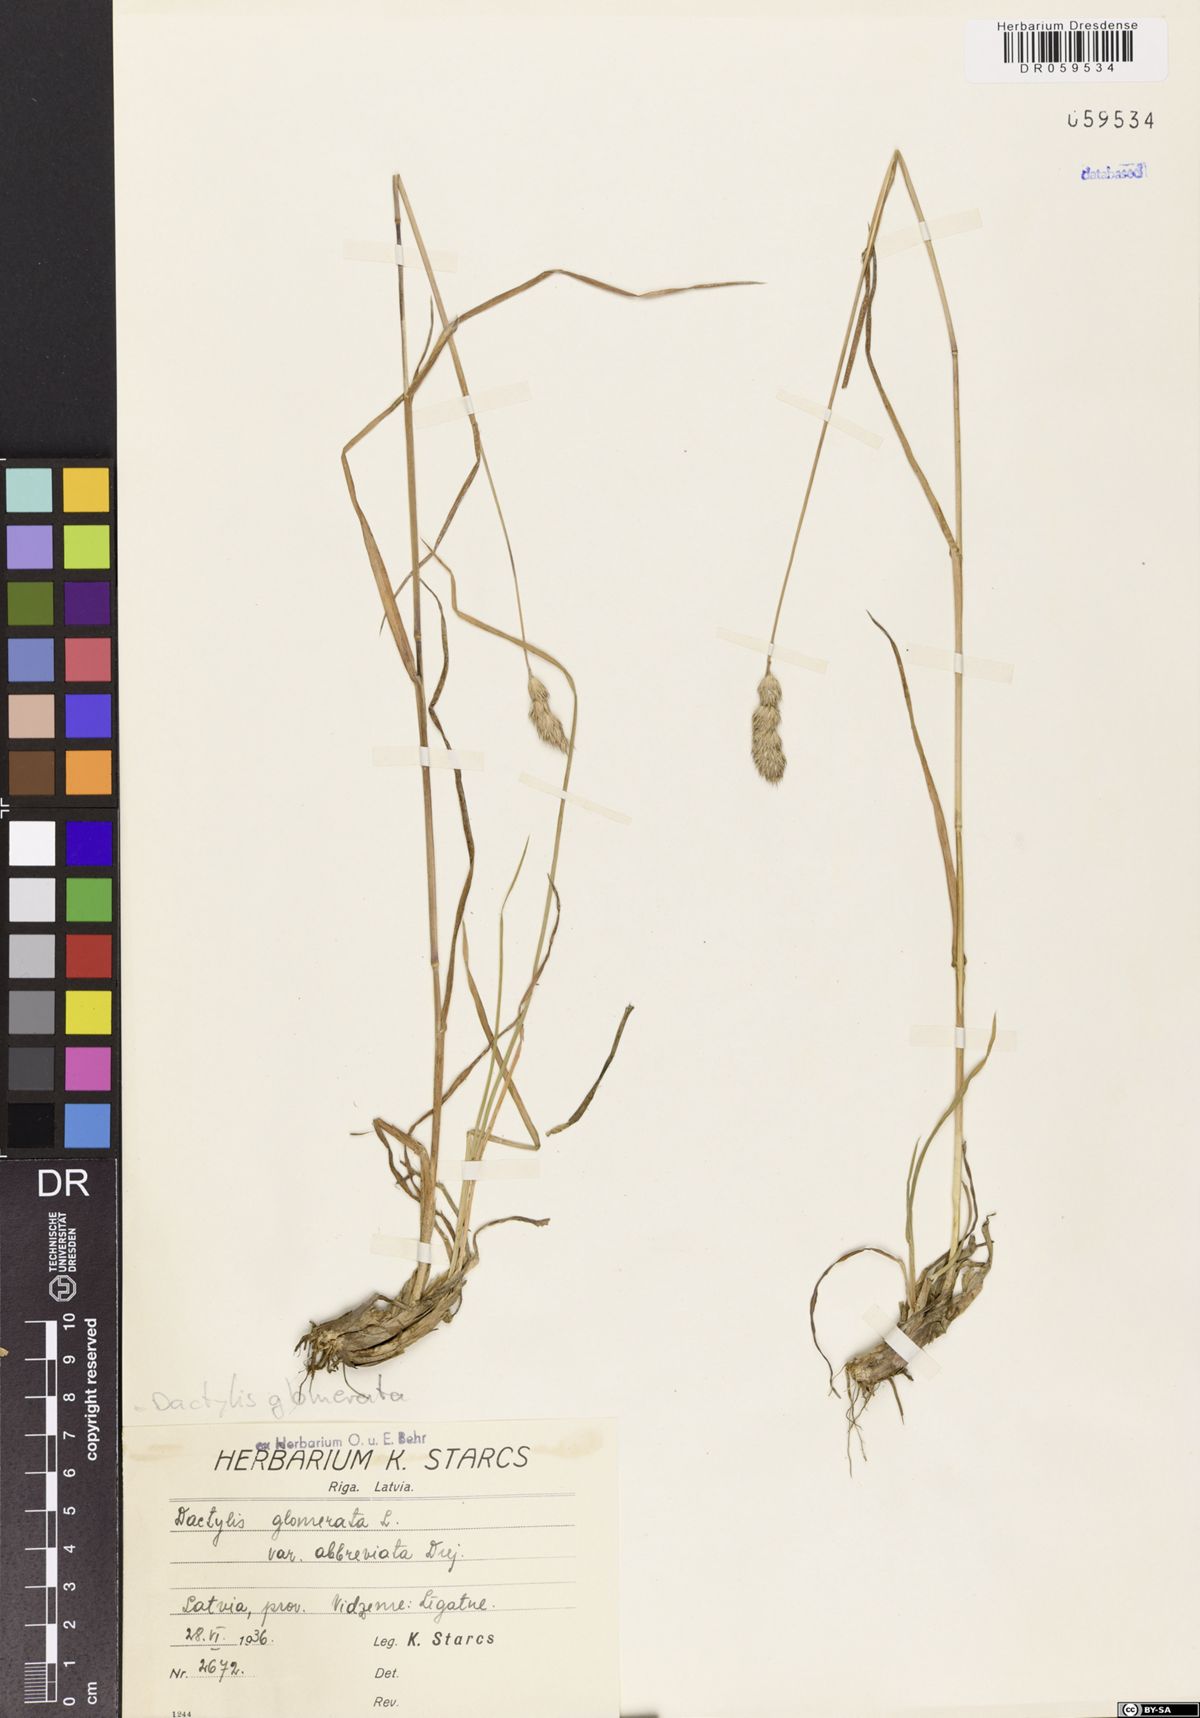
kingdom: Plantae
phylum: Tracheophyta
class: Liliopsida
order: Poales
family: Poaceae
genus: Dactylis
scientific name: Dactylis glomerata
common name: Orchardgrass
